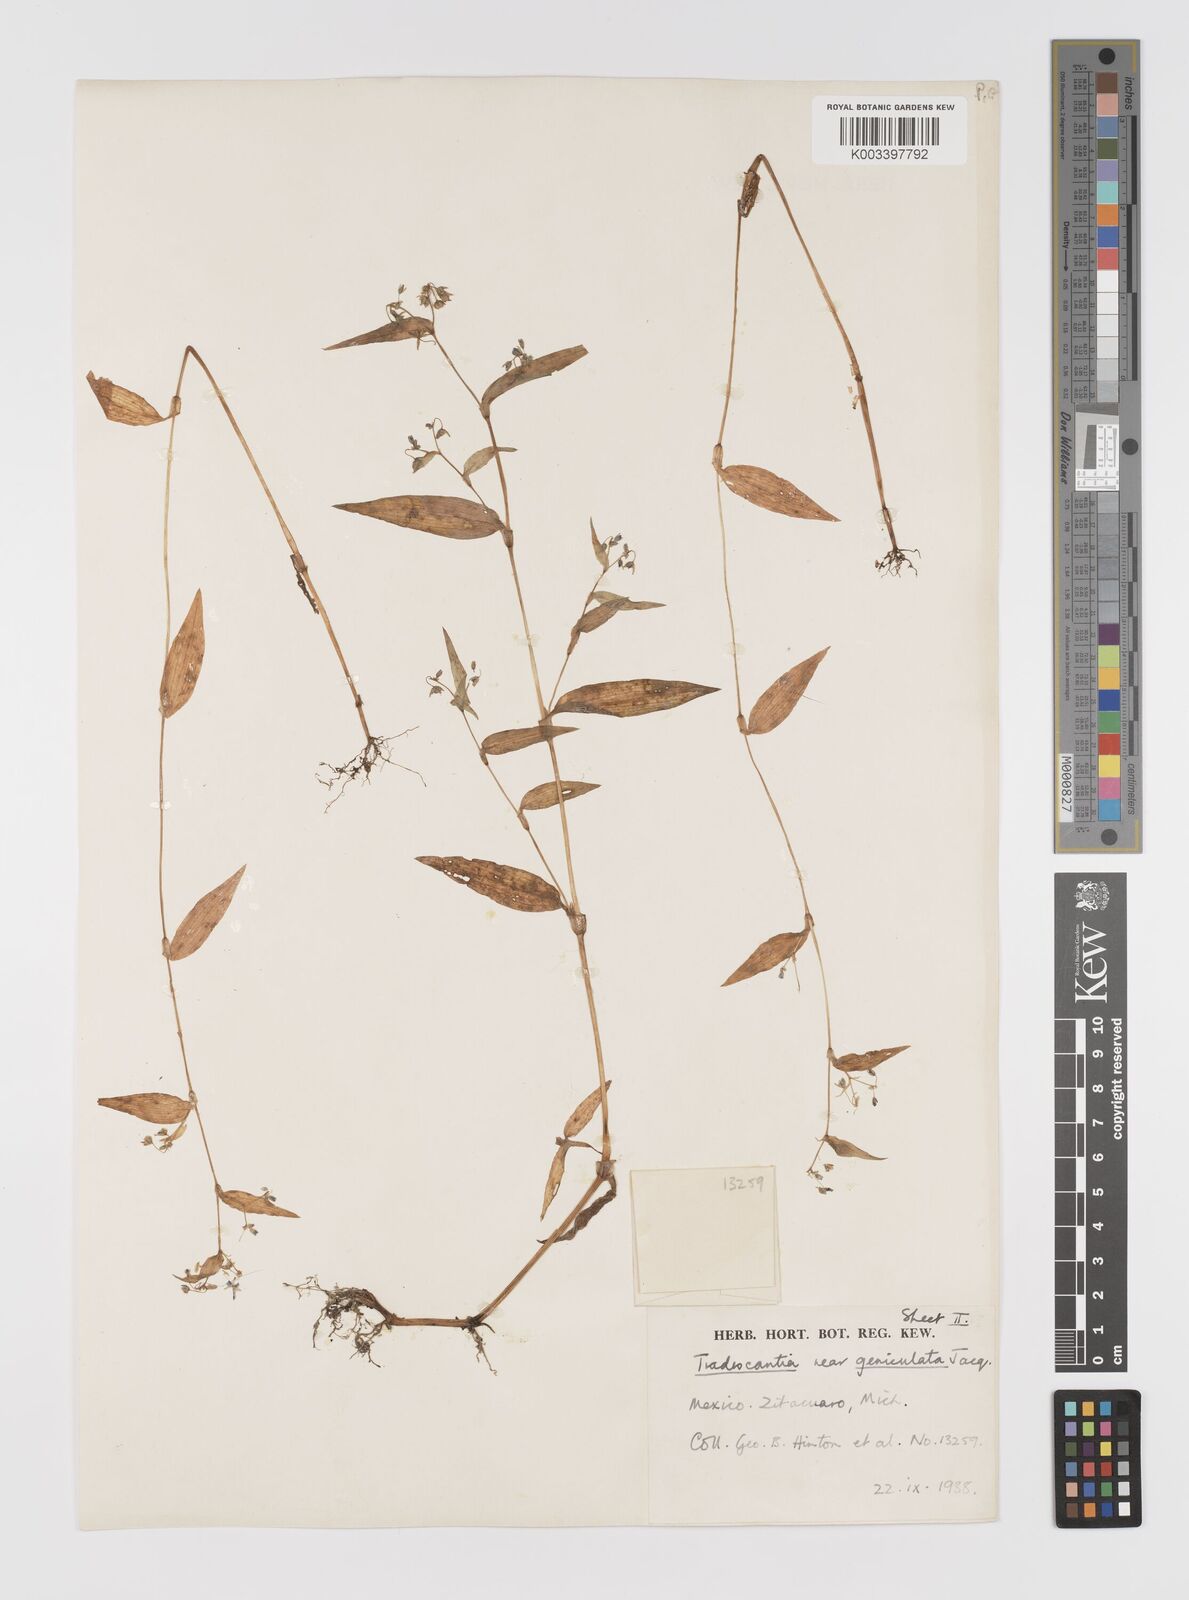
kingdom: Plantae
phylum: Tracheophyta
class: Liliopsida
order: Commelinales
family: Commelinaceae
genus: Gibasis
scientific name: Gibasis triflora
